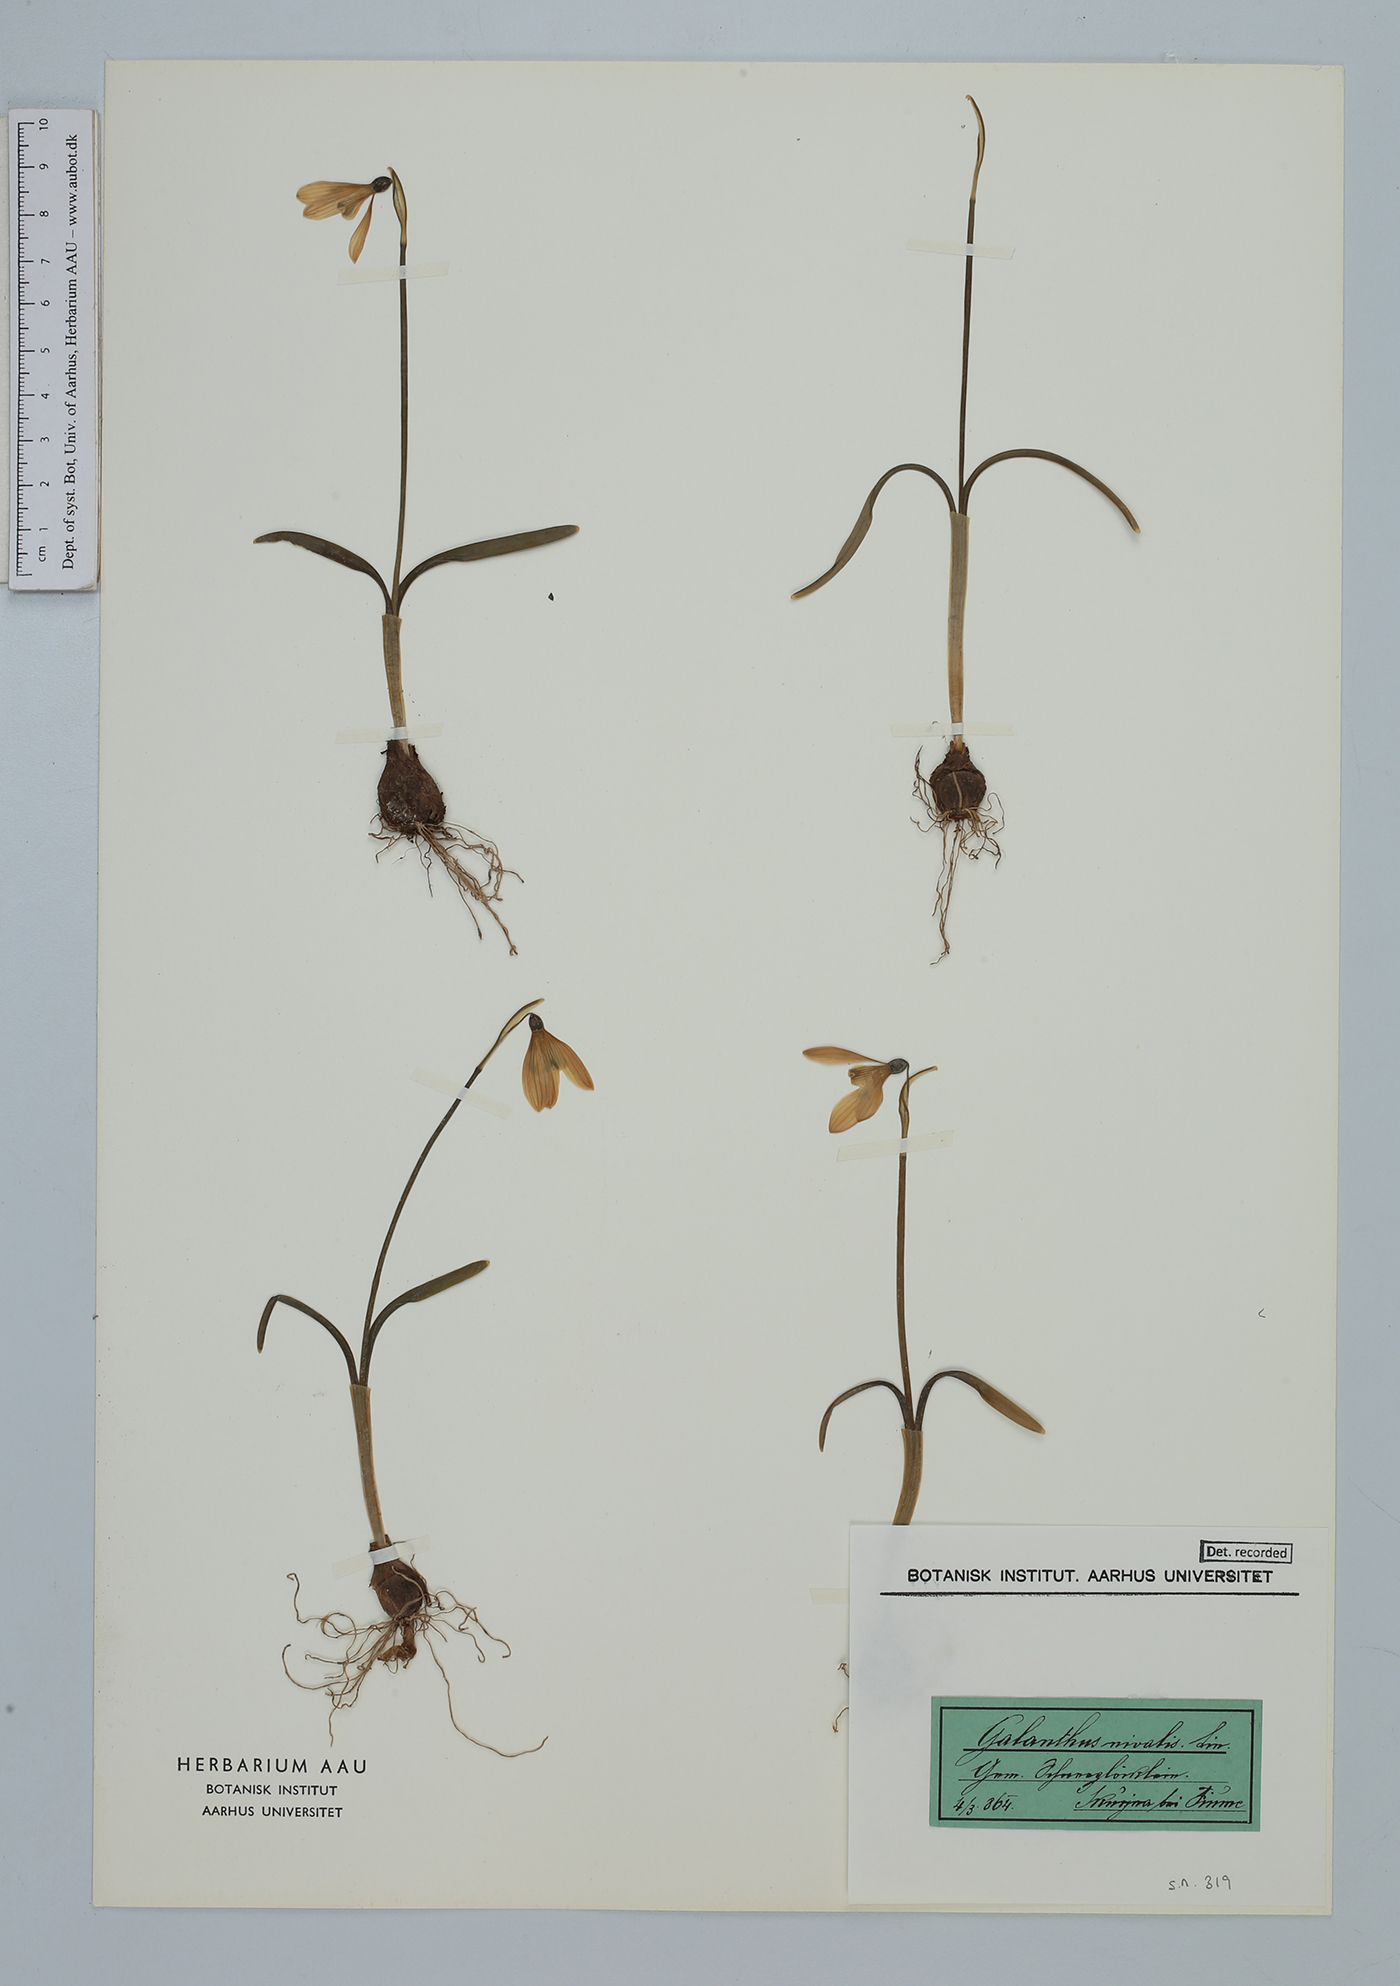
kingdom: Plantae
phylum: Tracheophyta
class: Liliopsida
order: Asparagales
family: Amaryllidaceae
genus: Galanthus
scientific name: Galanthus nivalis
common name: Snowdrop
